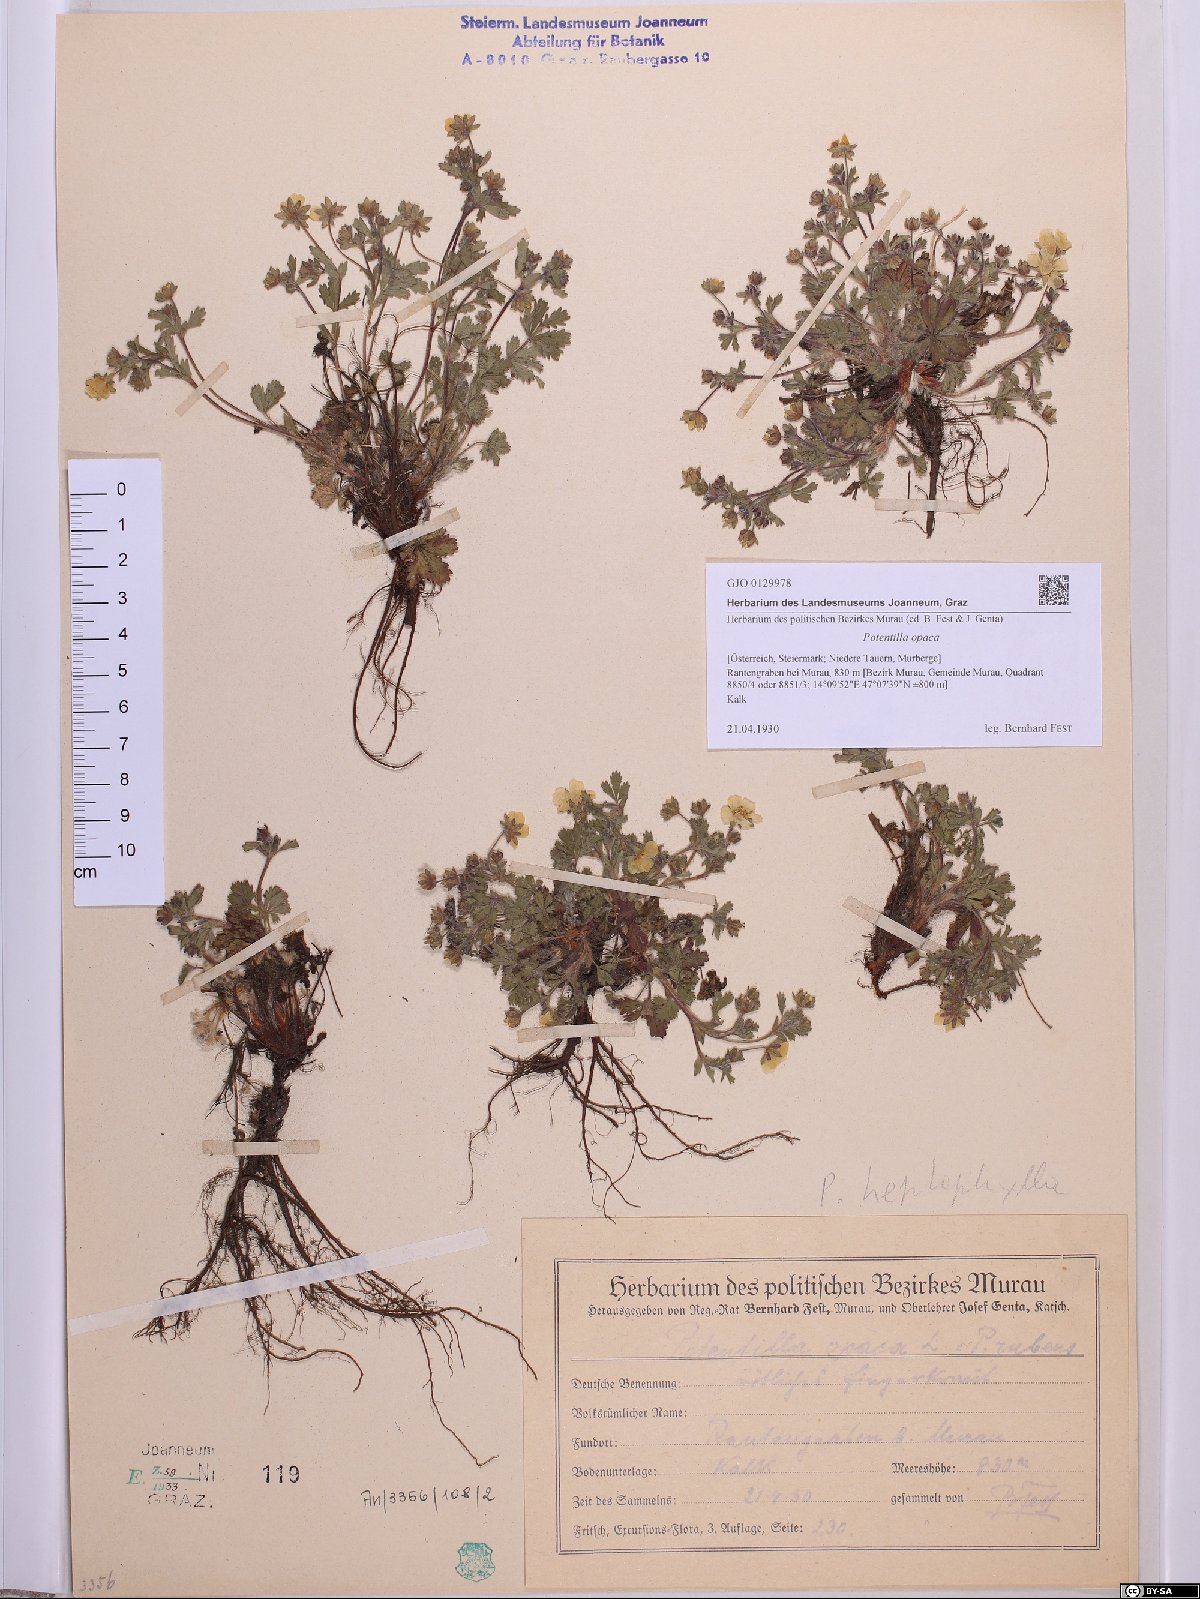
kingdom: Plantae
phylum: Tracheophyta
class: Magnoliopsida
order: Rosales
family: Rosaceae
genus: Potentilla
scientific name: Potentilla
